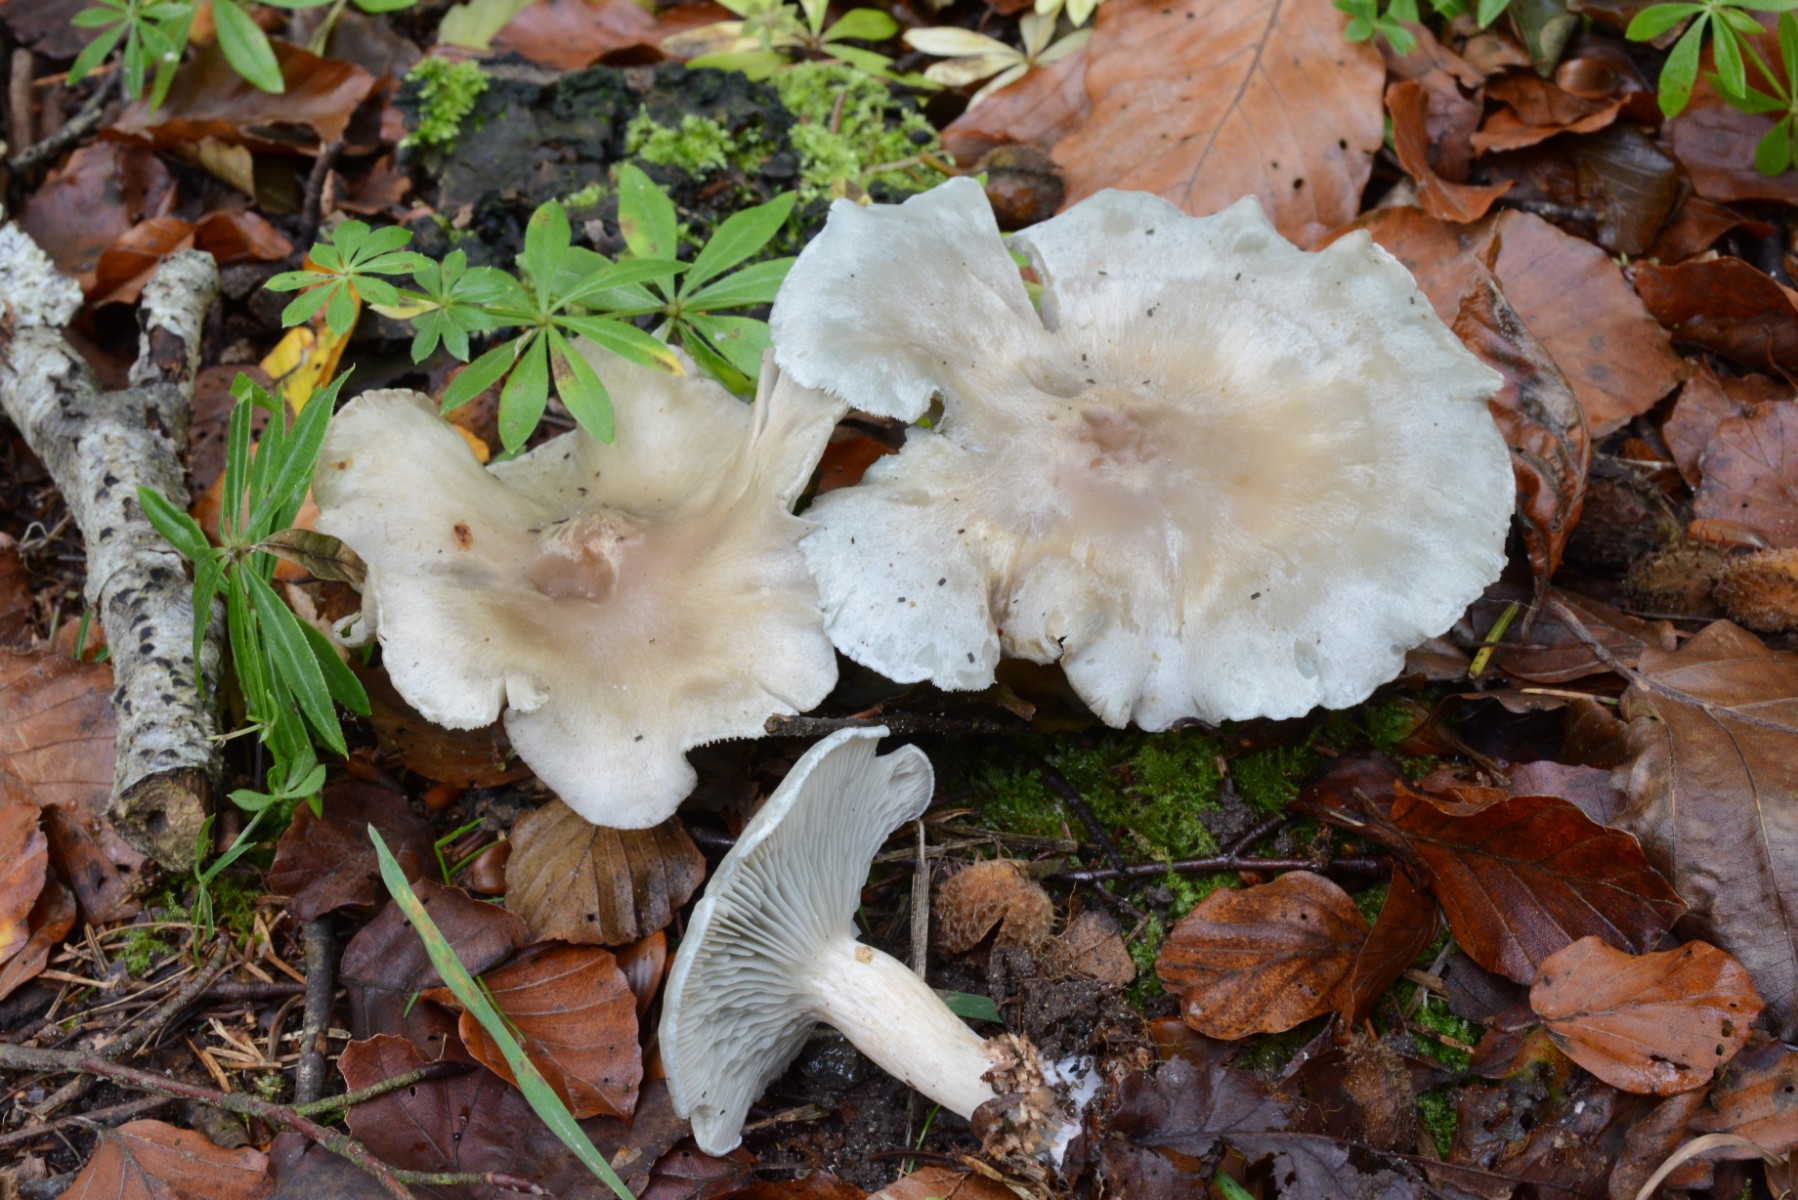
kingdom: Fungi
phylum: Basidiomycota
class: Agaricomycetes
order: Agaricales
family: Tricholomataceae
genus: Clitocybe
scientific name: Clitocybe odora
